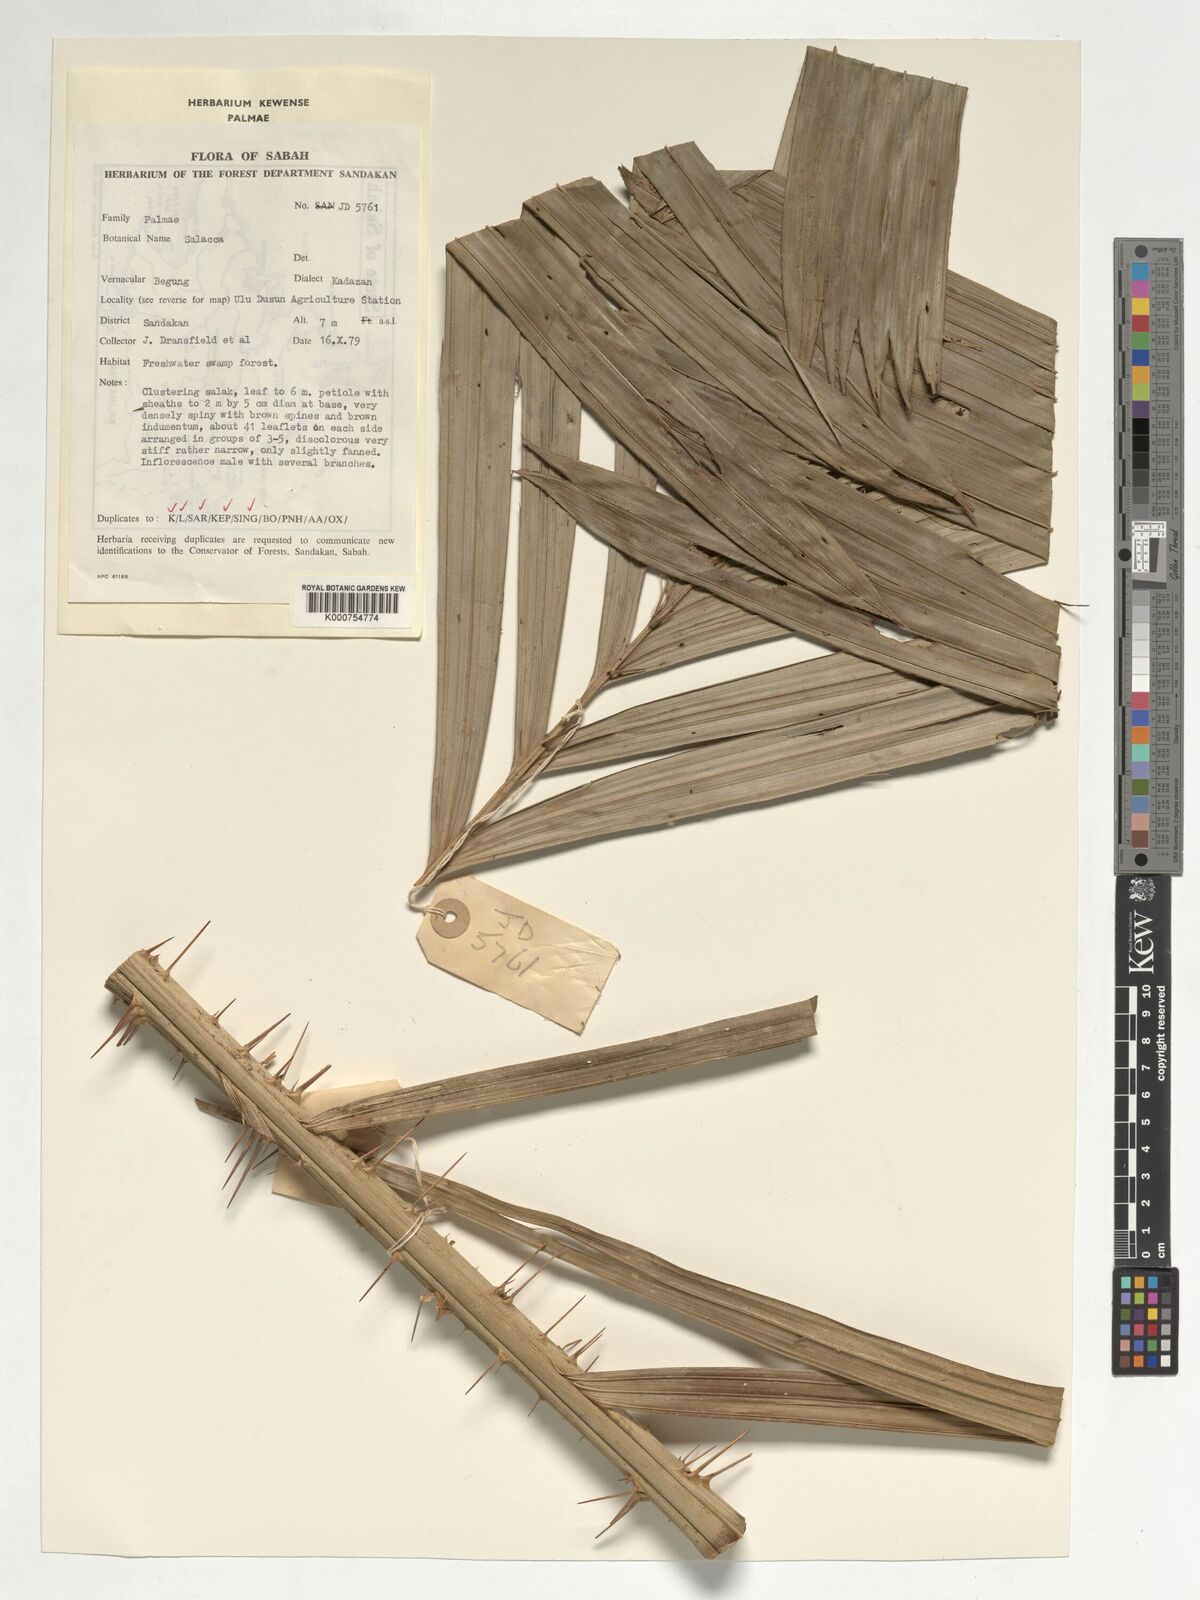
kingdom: Plantae
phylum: Tracheophyta
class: Liliopsida
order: Arecales
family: Arecaceae
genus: Salacca
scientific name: Salacca
